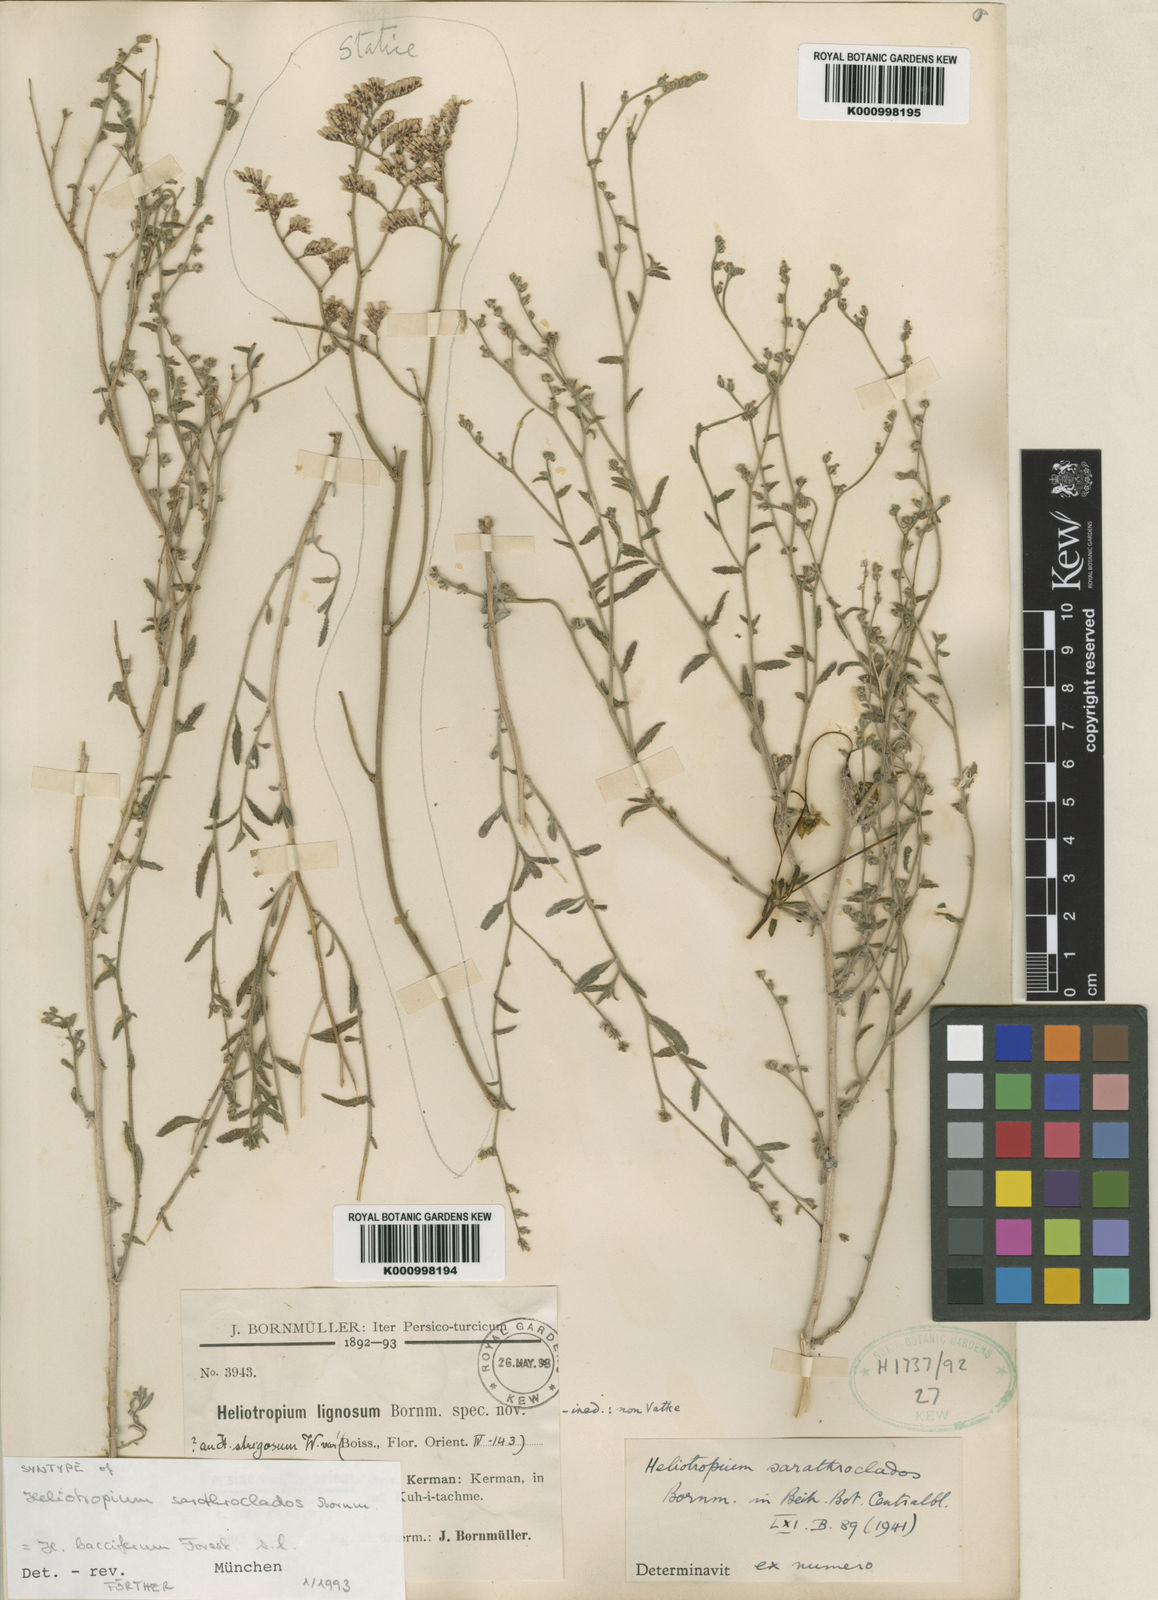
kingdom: Plantae
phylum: Tracheophyta
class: Magnoliopsida
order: Boraginales
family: Heliotropiaceae
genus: Heliotropium
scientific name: Heliotropium ramosissimum
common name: Wavy heliotrope
